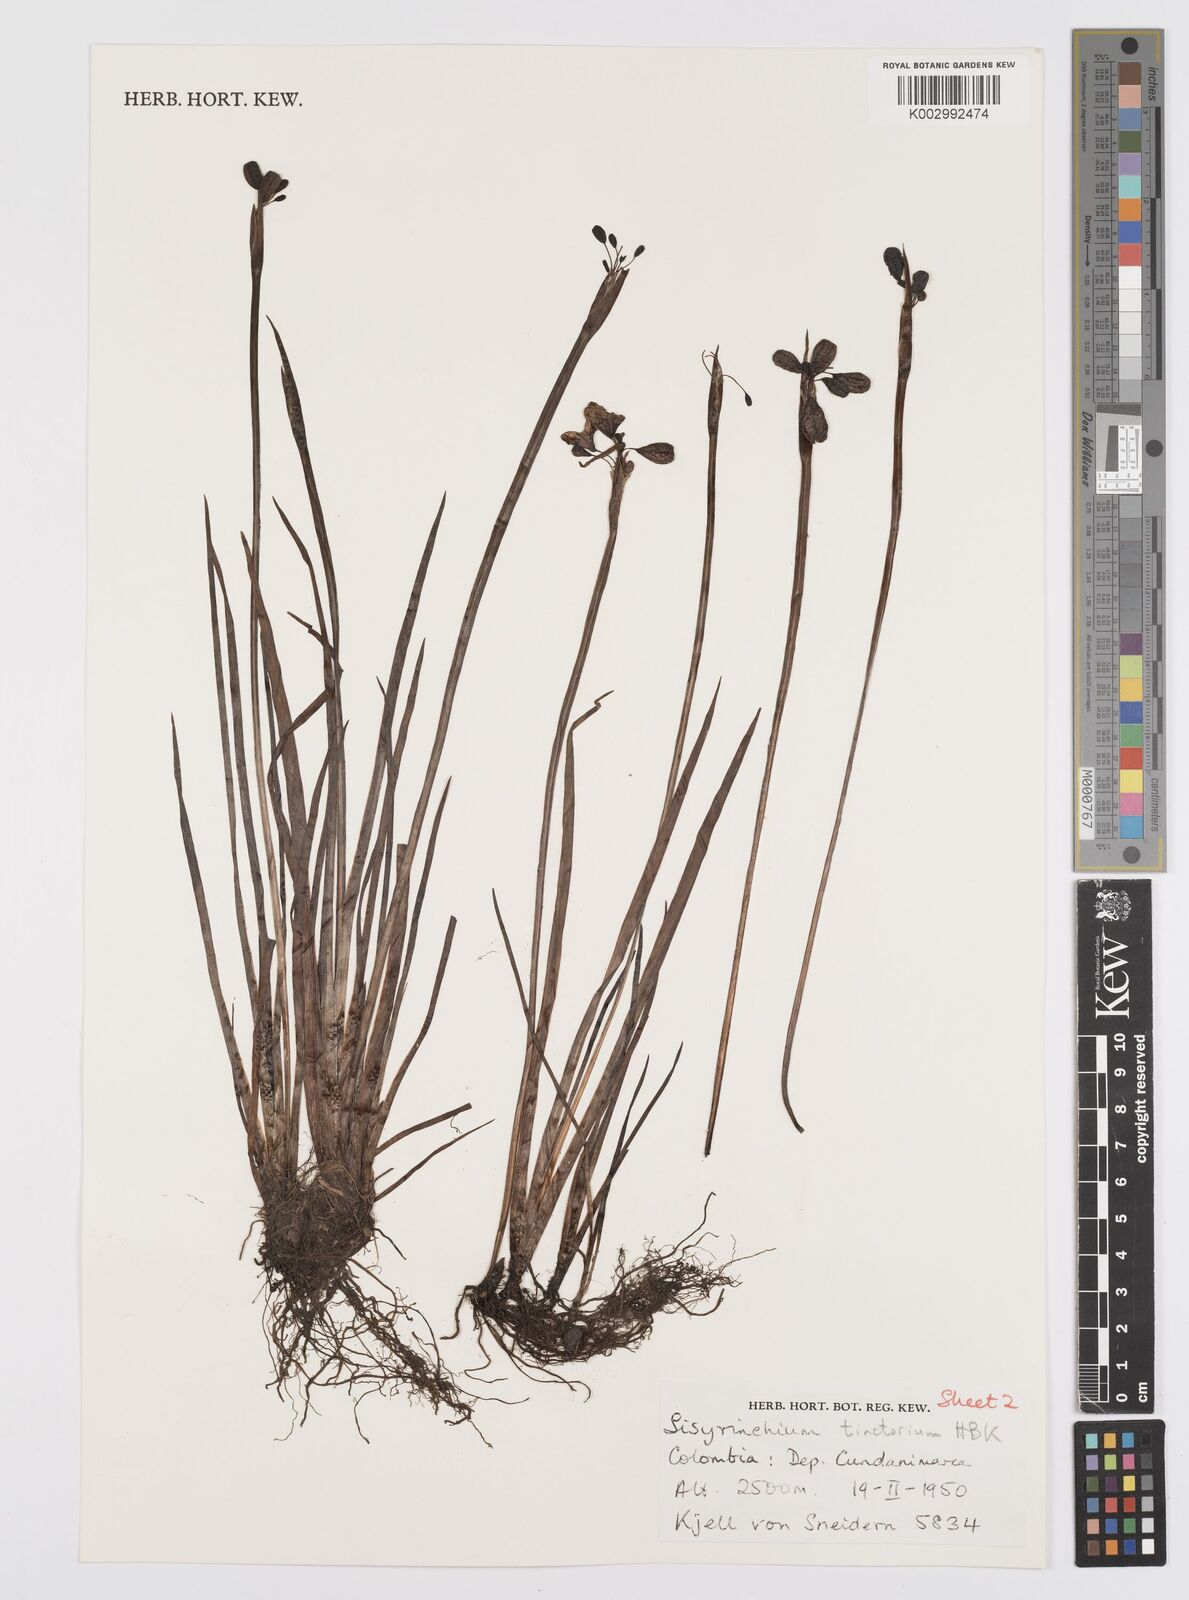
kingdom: Plantae
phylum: Tracheophyta
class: Liliopsida
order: Asparagales
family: Iridaceae
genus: Sisyrinchium
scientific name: Sisyrinchium tinctorium
